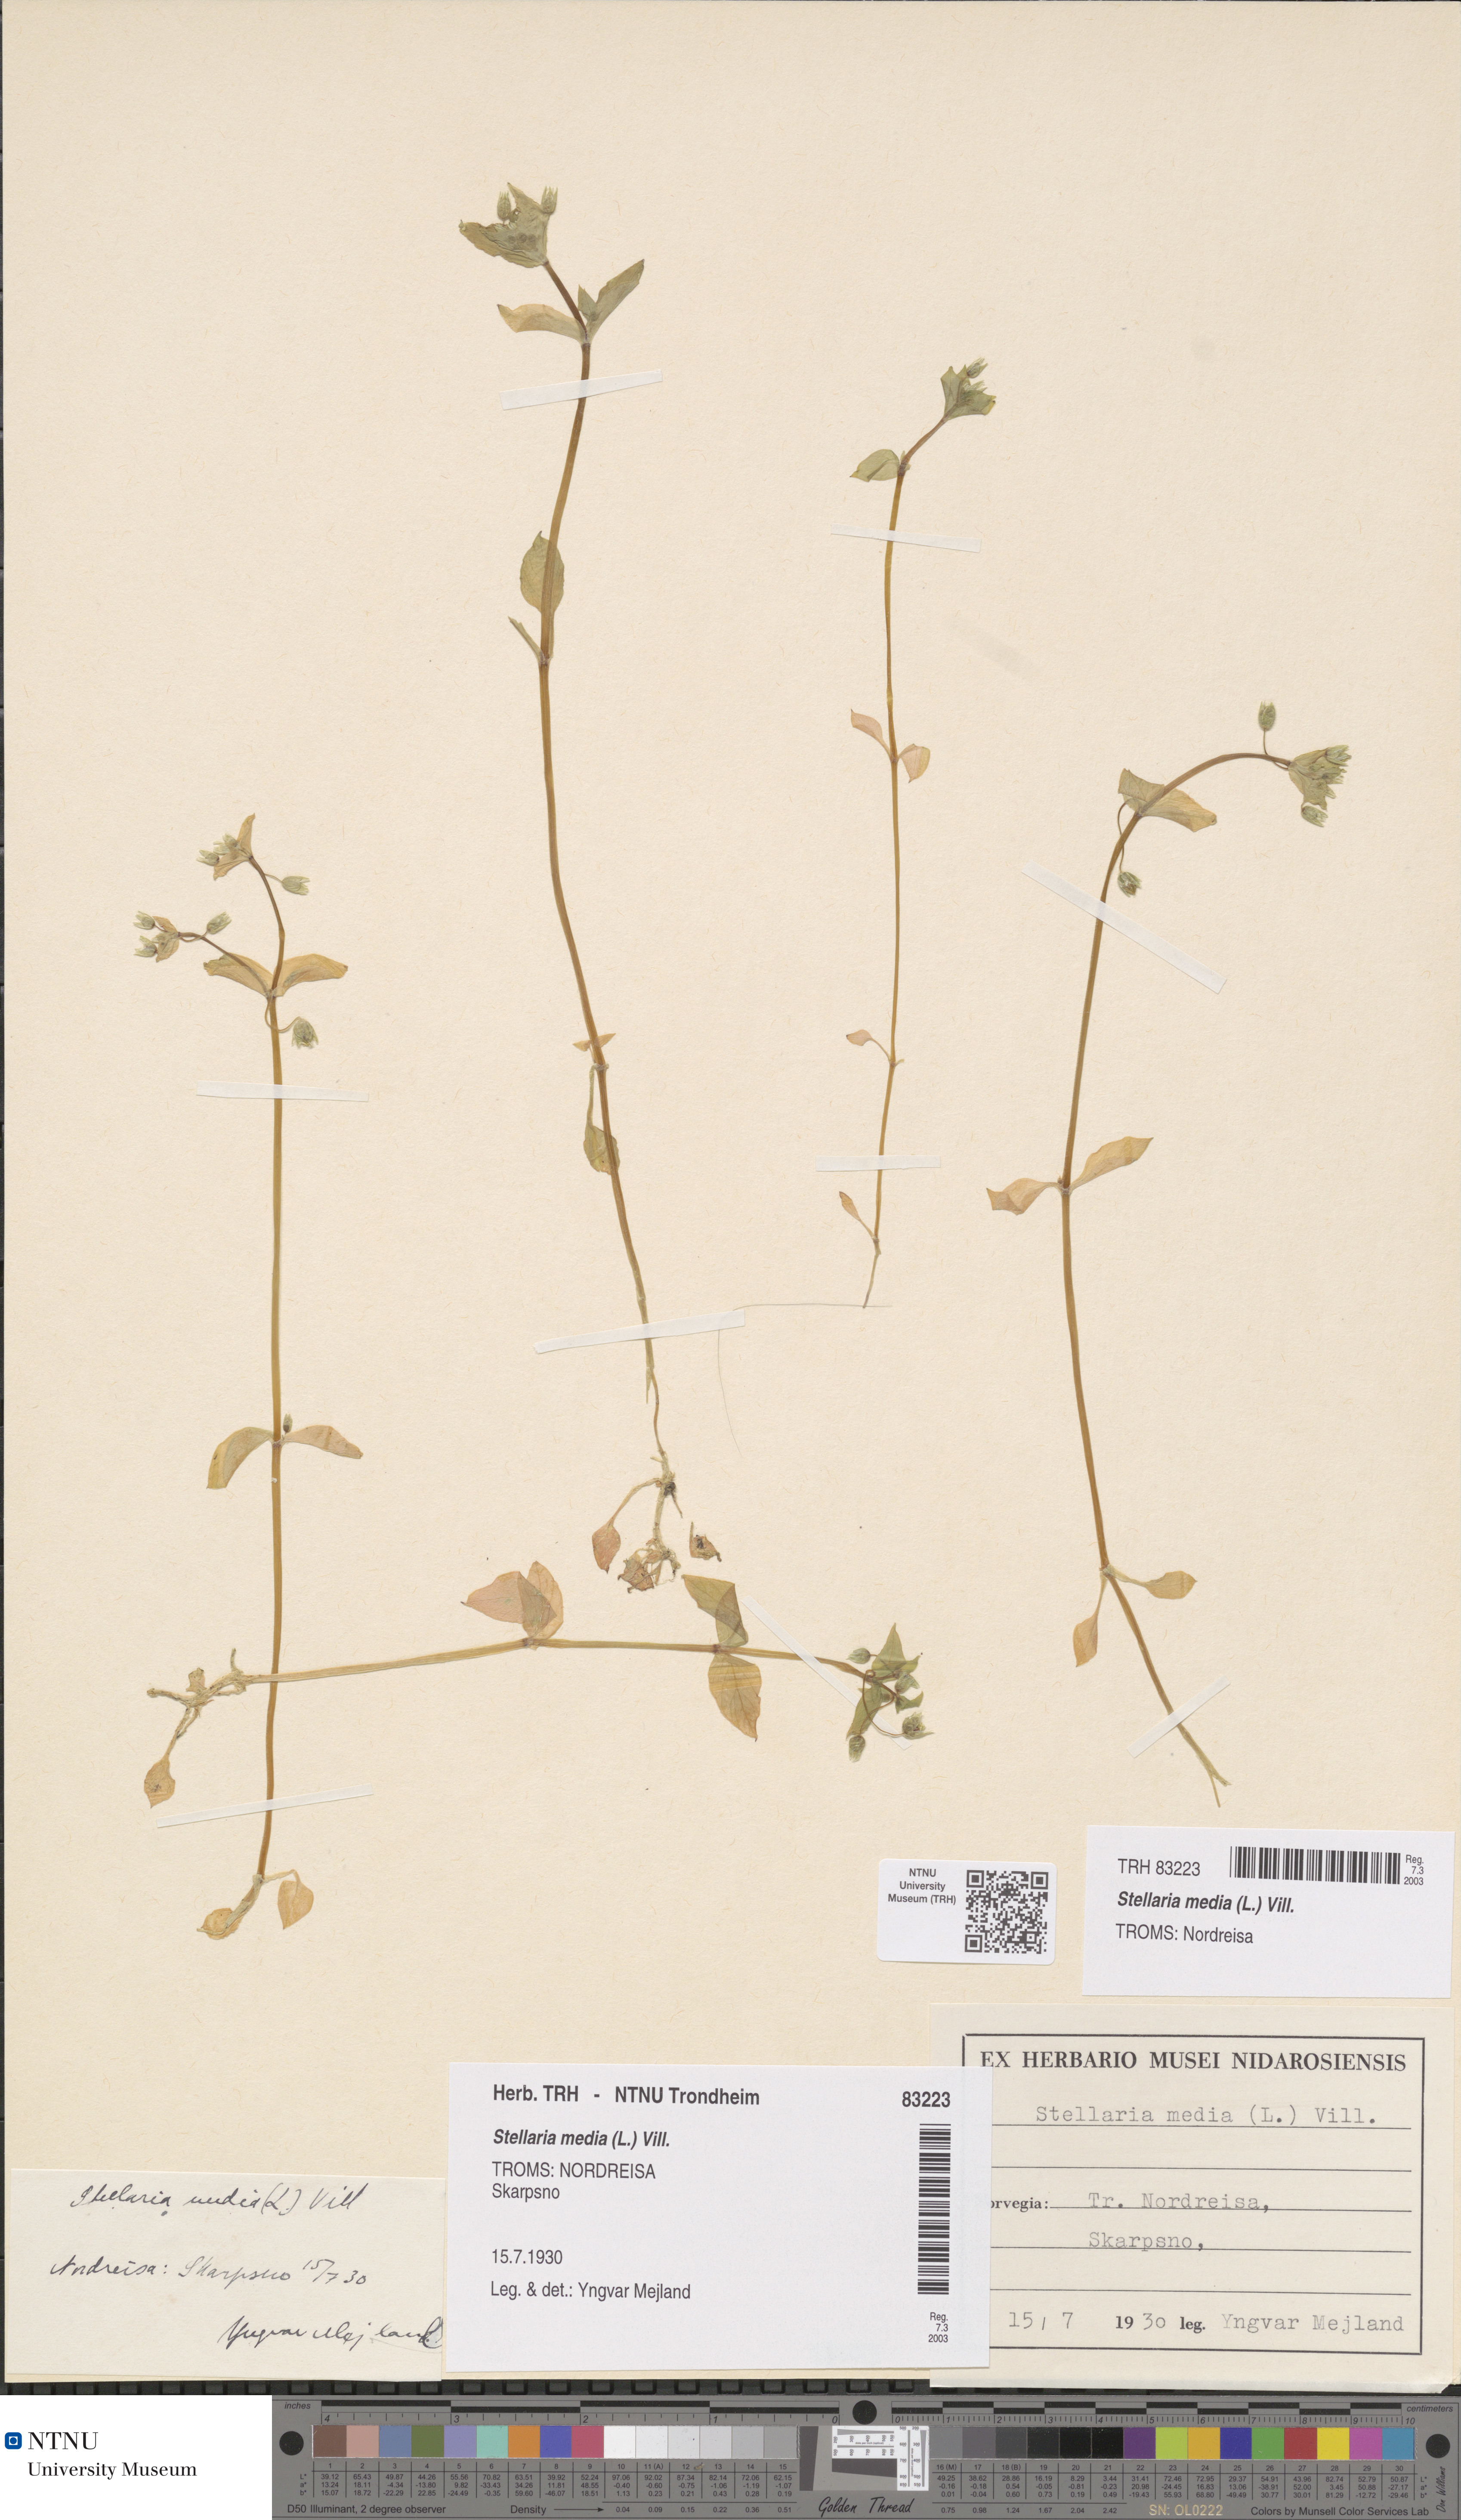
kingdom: Plantae
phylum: Tracheophyta
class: Magnoliopsida
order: Caryophyllales
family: Caryophyllaceae
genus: Stellaria
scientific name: Stellaria media
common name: Common chickweed
